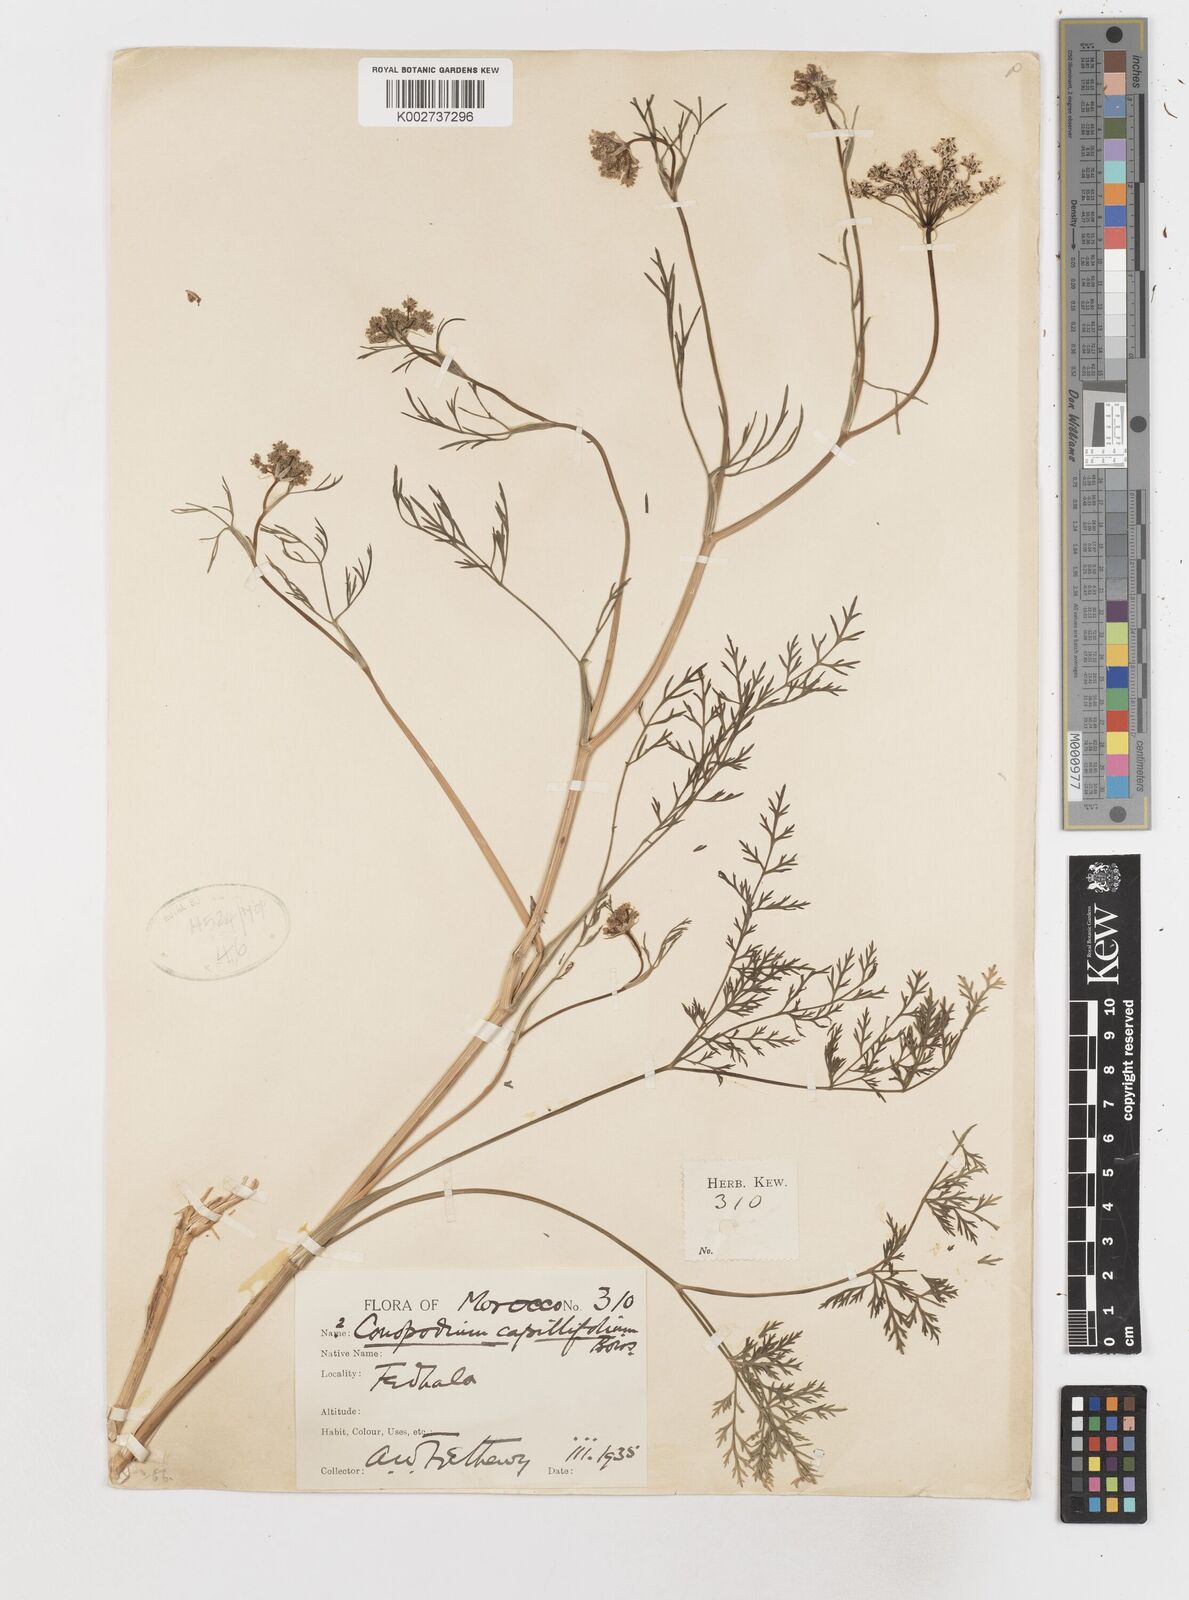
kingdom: Plantae
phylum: Tracheophyta
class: Magnoliopsida
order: Apiales
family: Apiaceae
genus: Geocaryum
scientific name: Geocaryum capillifolium
